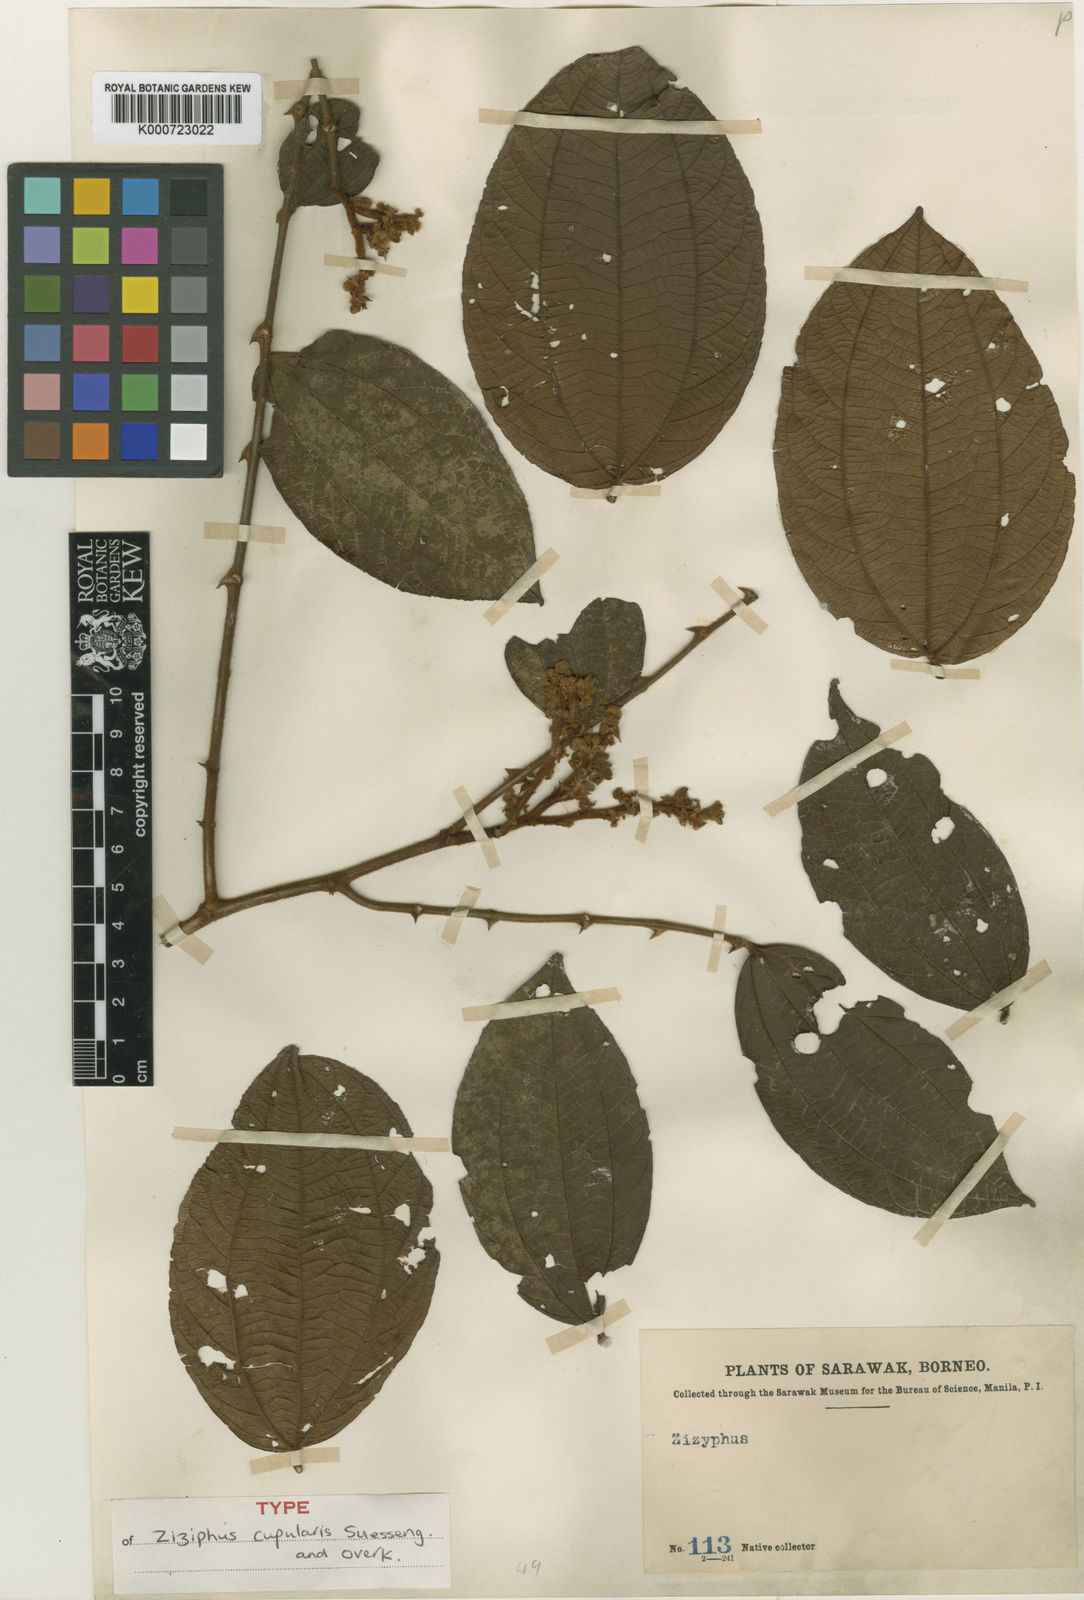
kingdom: Plantae
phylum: Tracheophyta
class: Magnoliopsida
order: Rosales
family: Rhamnaceae
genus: Ziziphus
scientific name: Ziziphus kunstleri
